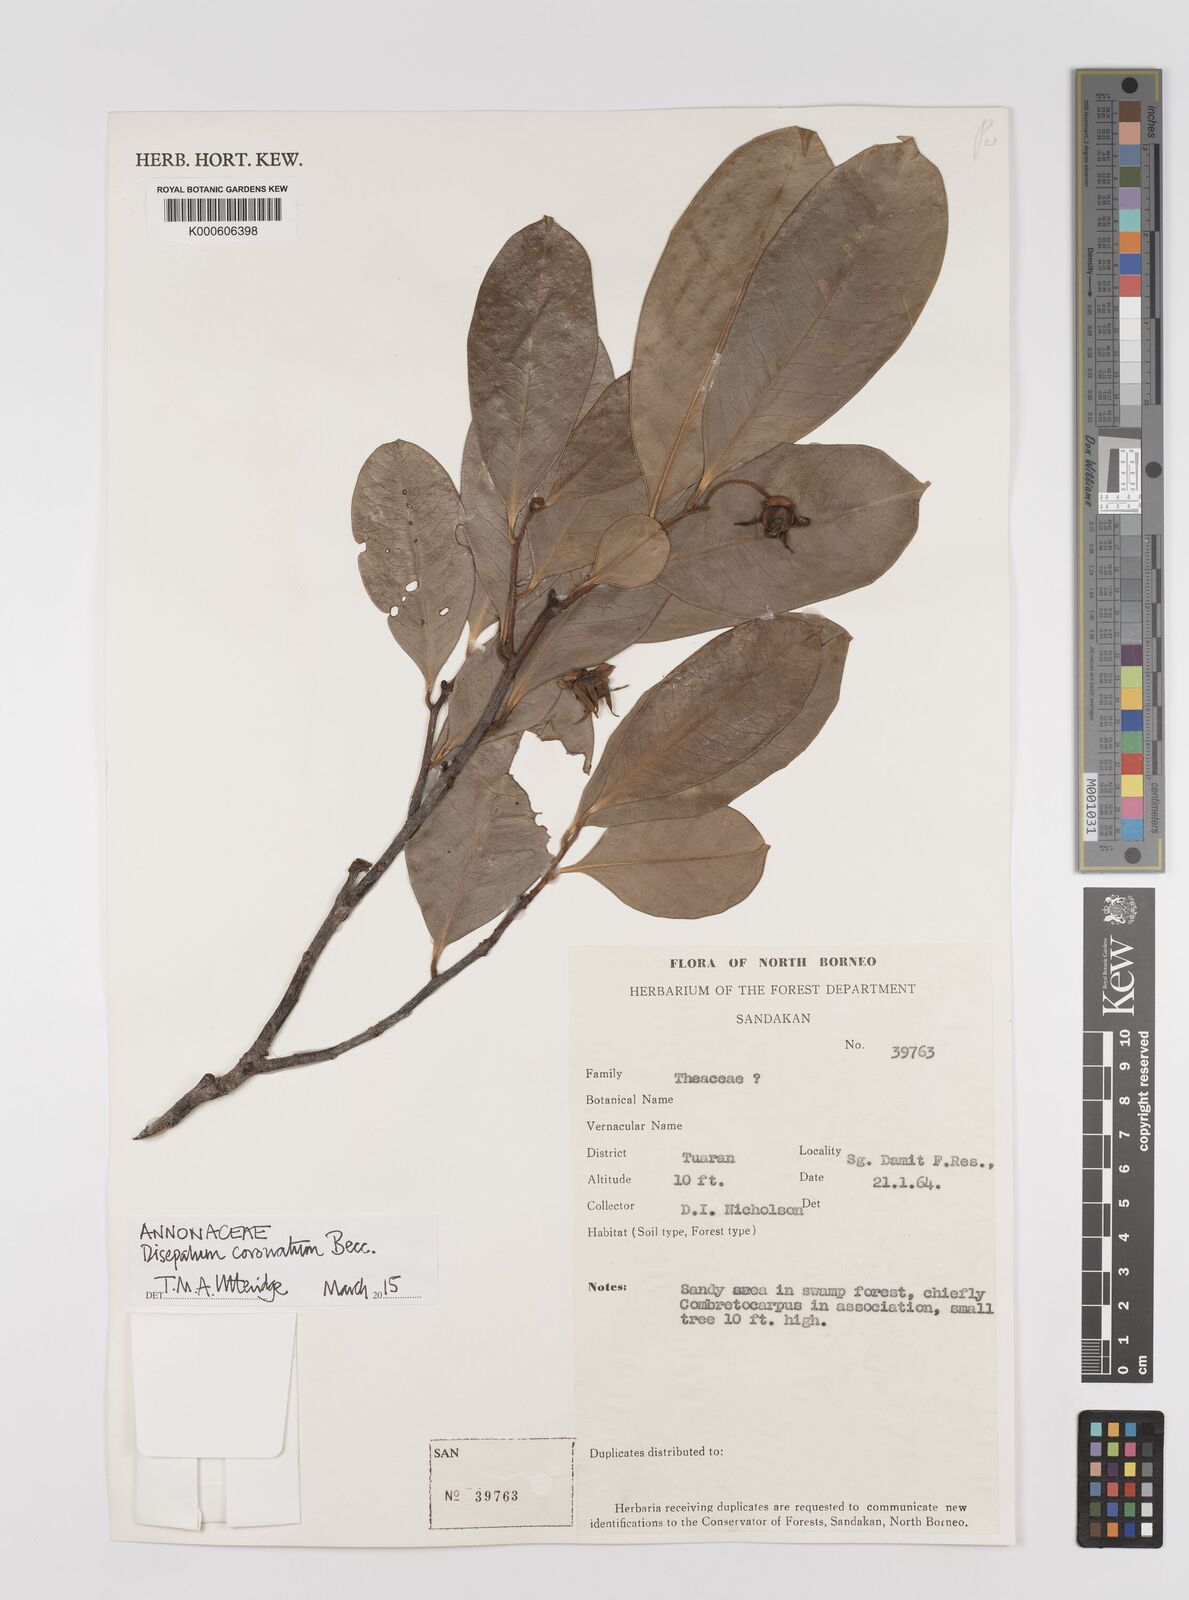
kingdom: Plantae
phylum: Tracheophyta
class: Magnoliopsida
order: Magnoliales
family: Annonaceae
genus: Disepalum
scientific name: Disepalum coronatum
